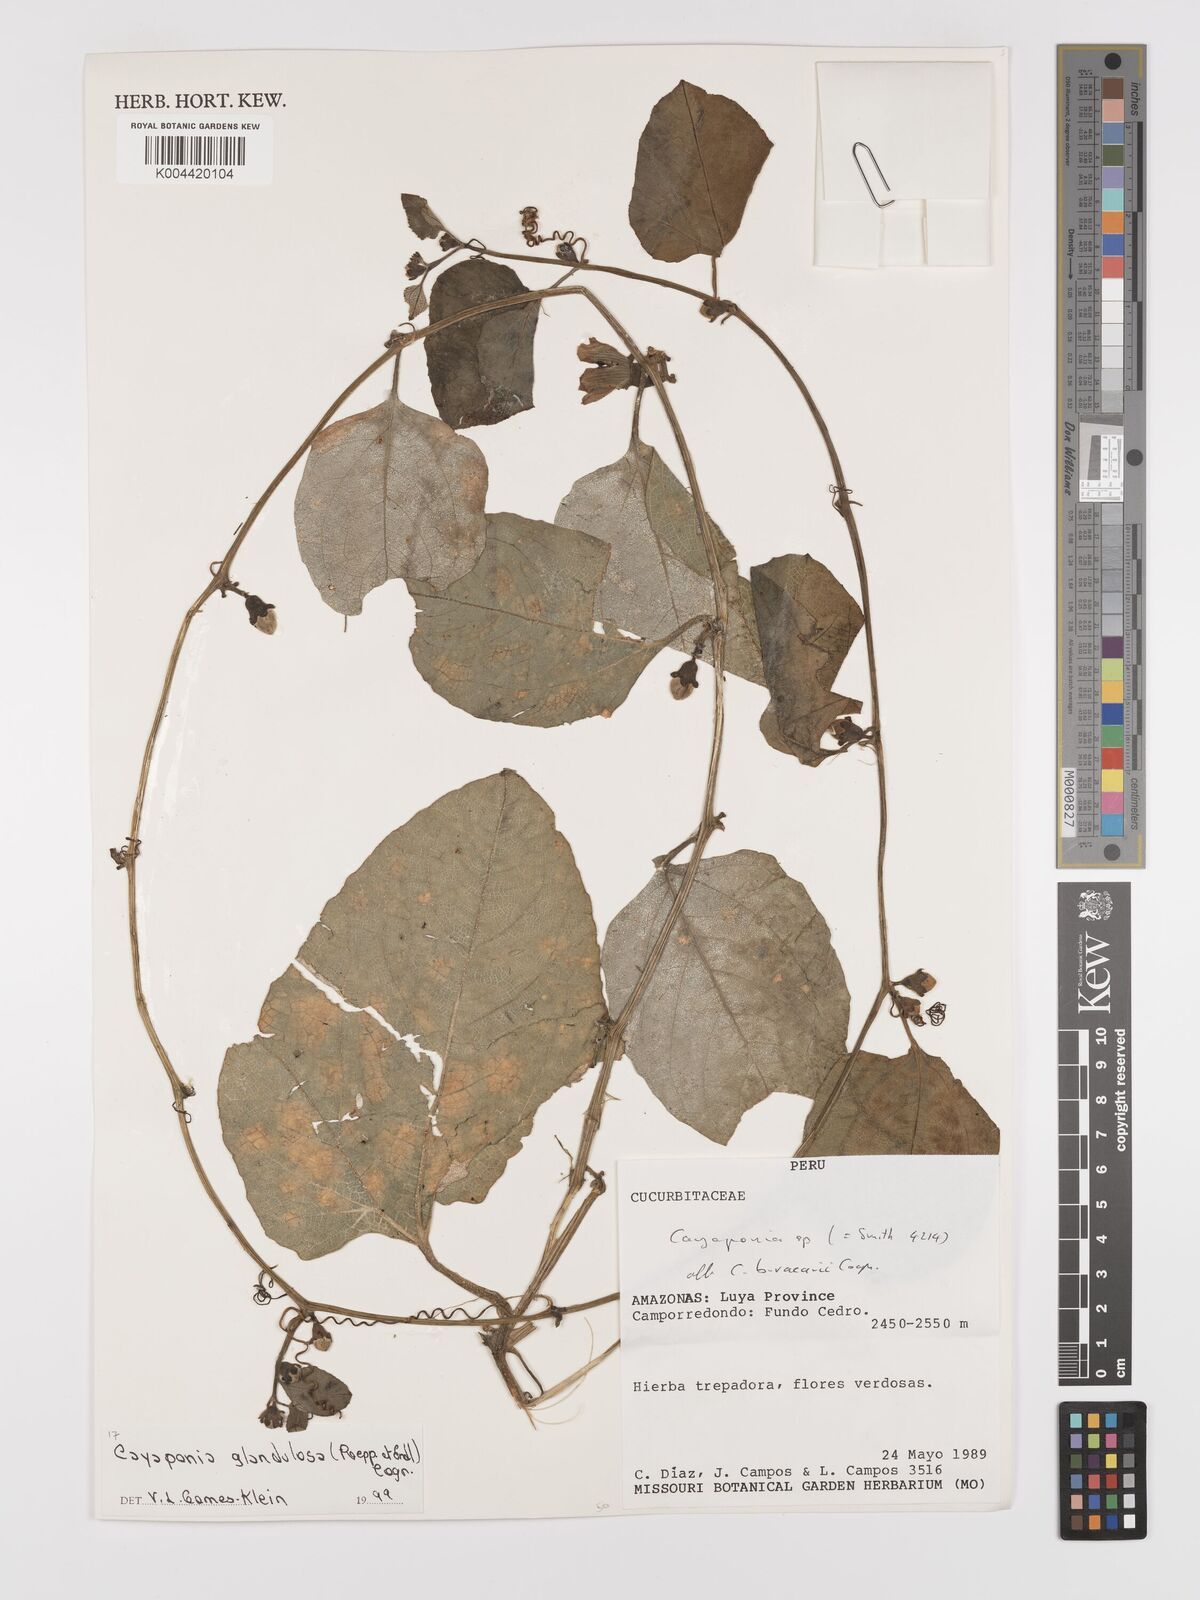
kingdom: Plantae
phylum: Tracheophyta
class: Magnoliopsida
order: Cucurbitales
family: Cucurbitaceae
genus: Cayaponia
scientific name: Cayaponia glandulosa
